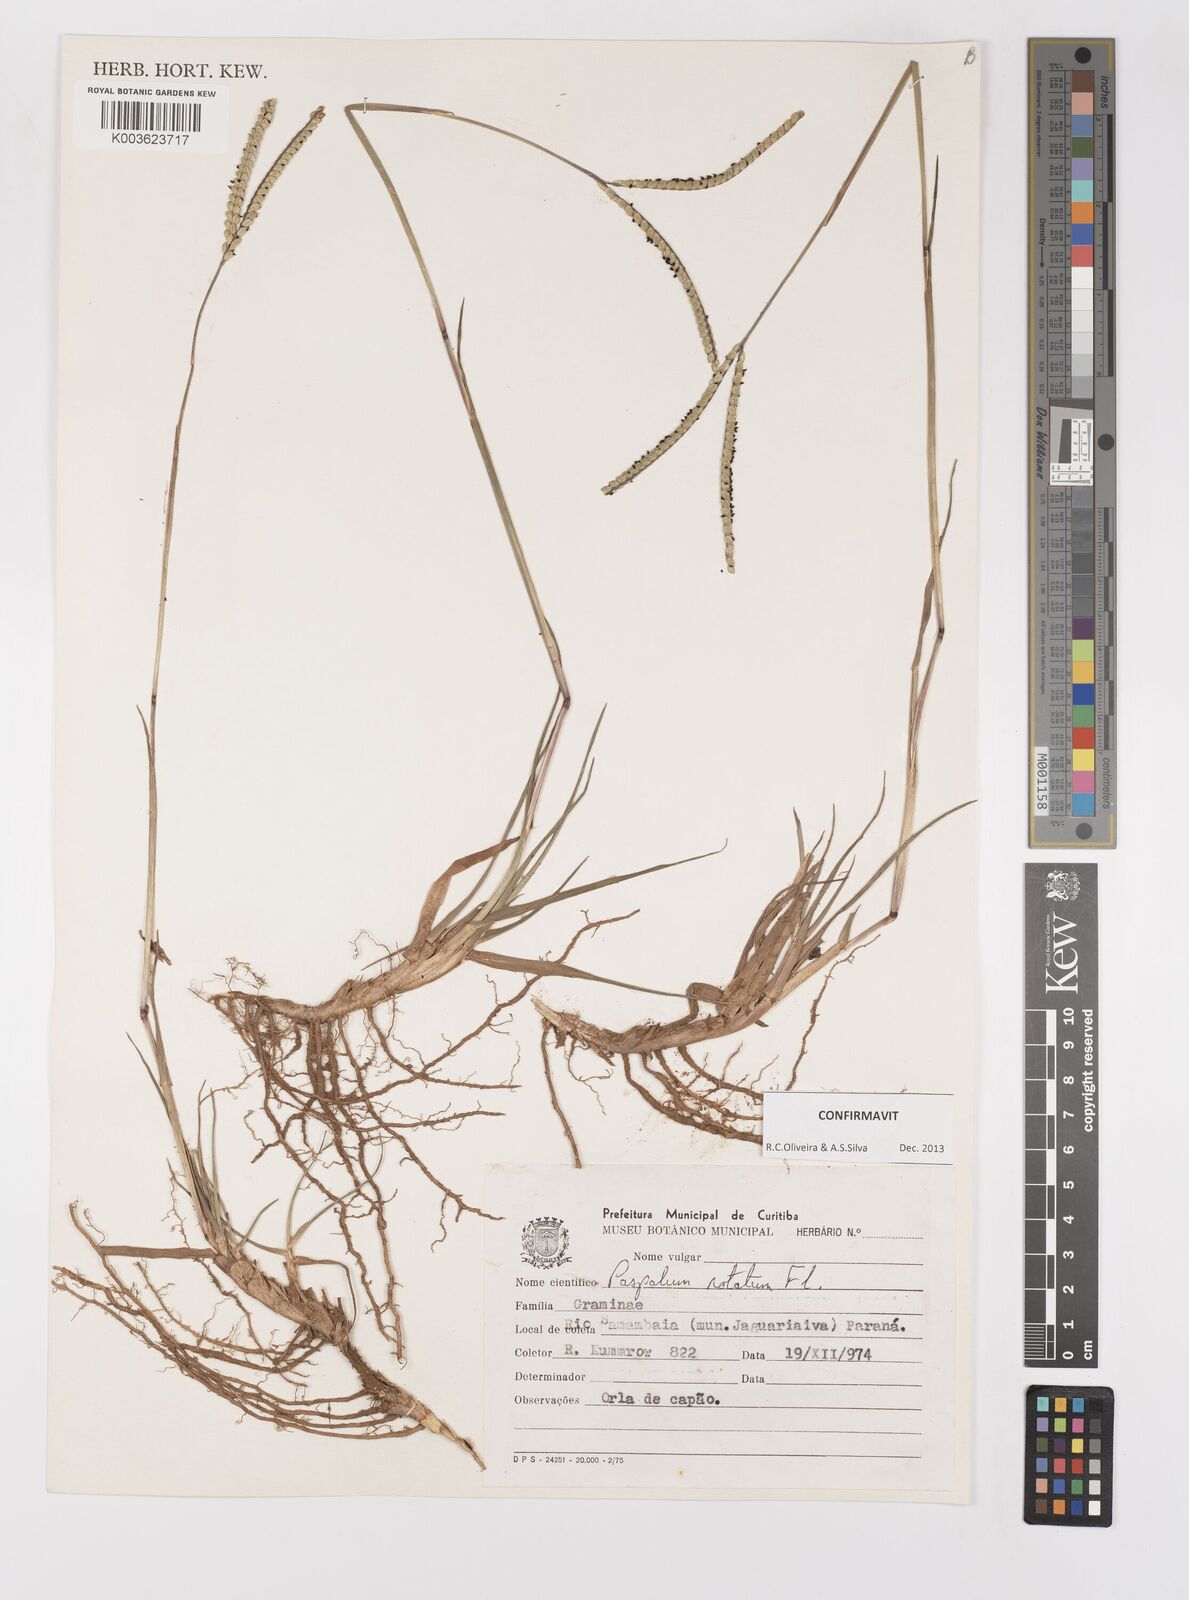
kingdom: Plantae
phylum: Tracheophyta
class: Liliopsida
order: Poales
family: Poaceae
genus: Paspalum
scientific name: Paspalum notatum
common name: Bahiagrass
